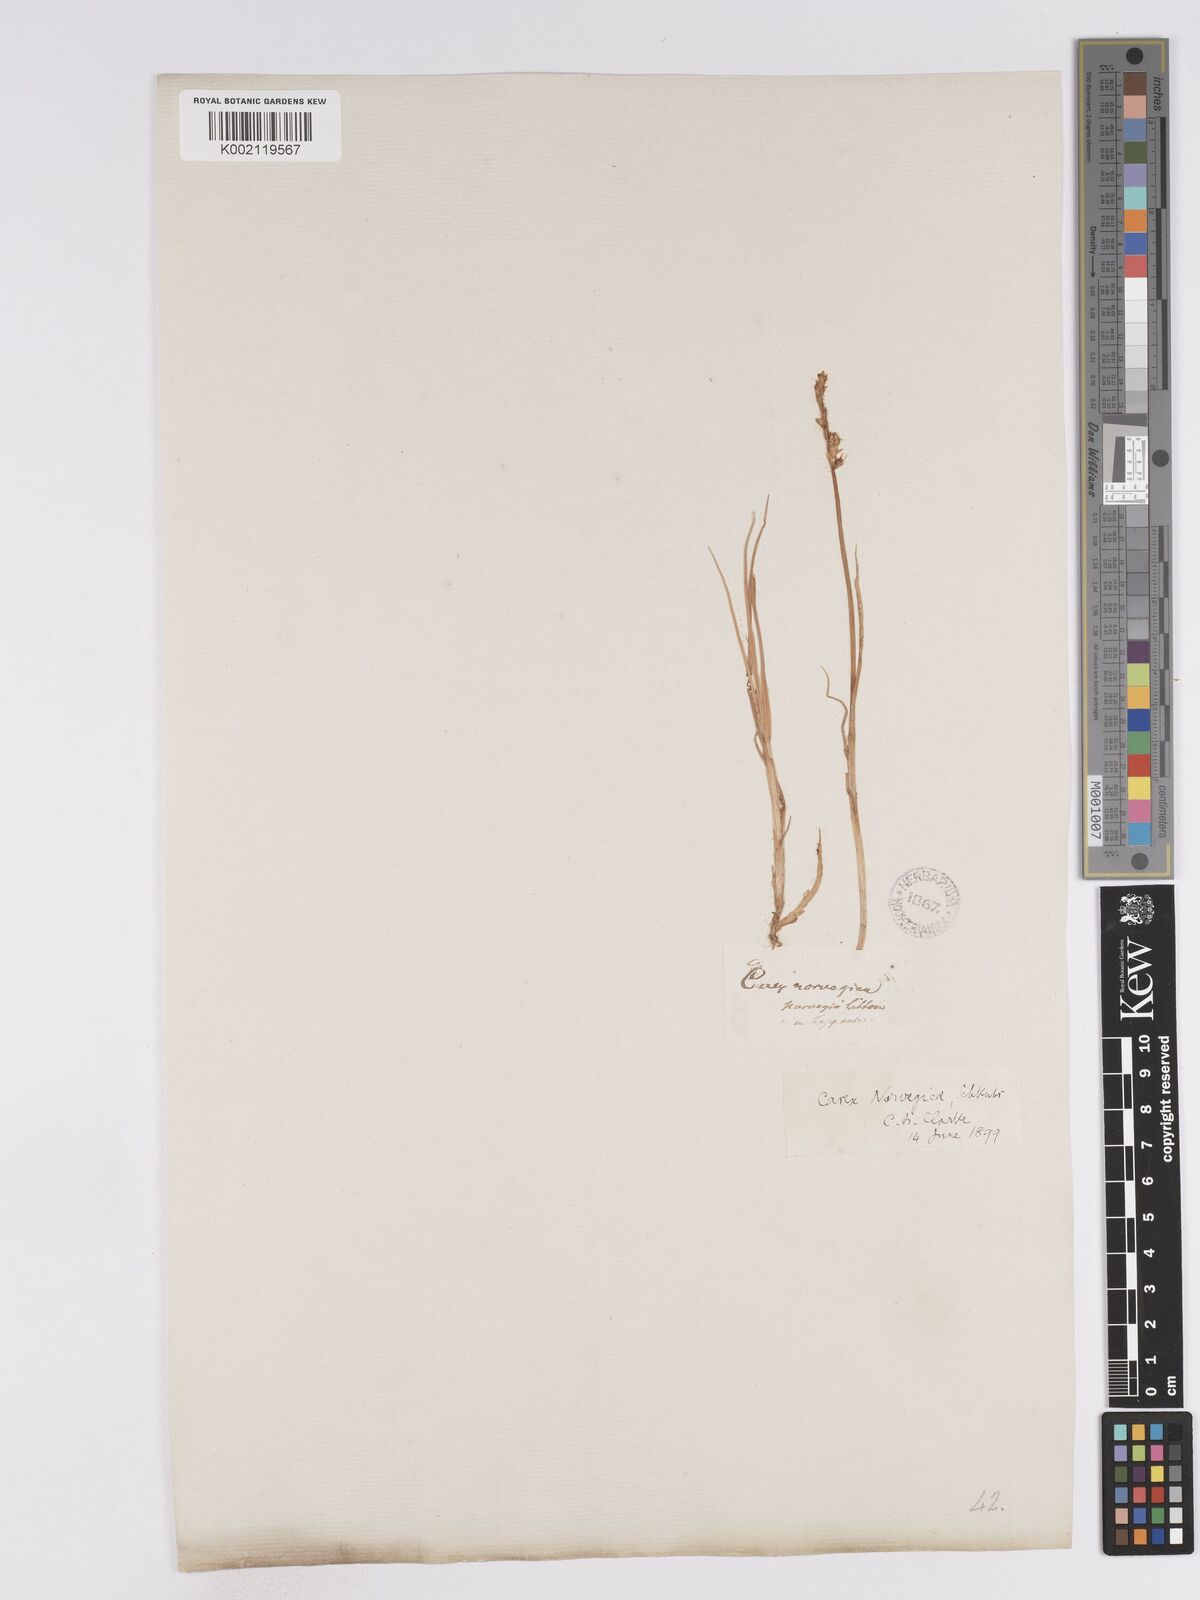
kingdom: Plantae
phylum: Tracheophyta
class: Liliopsida
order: Poales
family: Cyperaceae
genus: Carex
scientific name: Carex mackenziei
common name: Mackenzie's sedge
